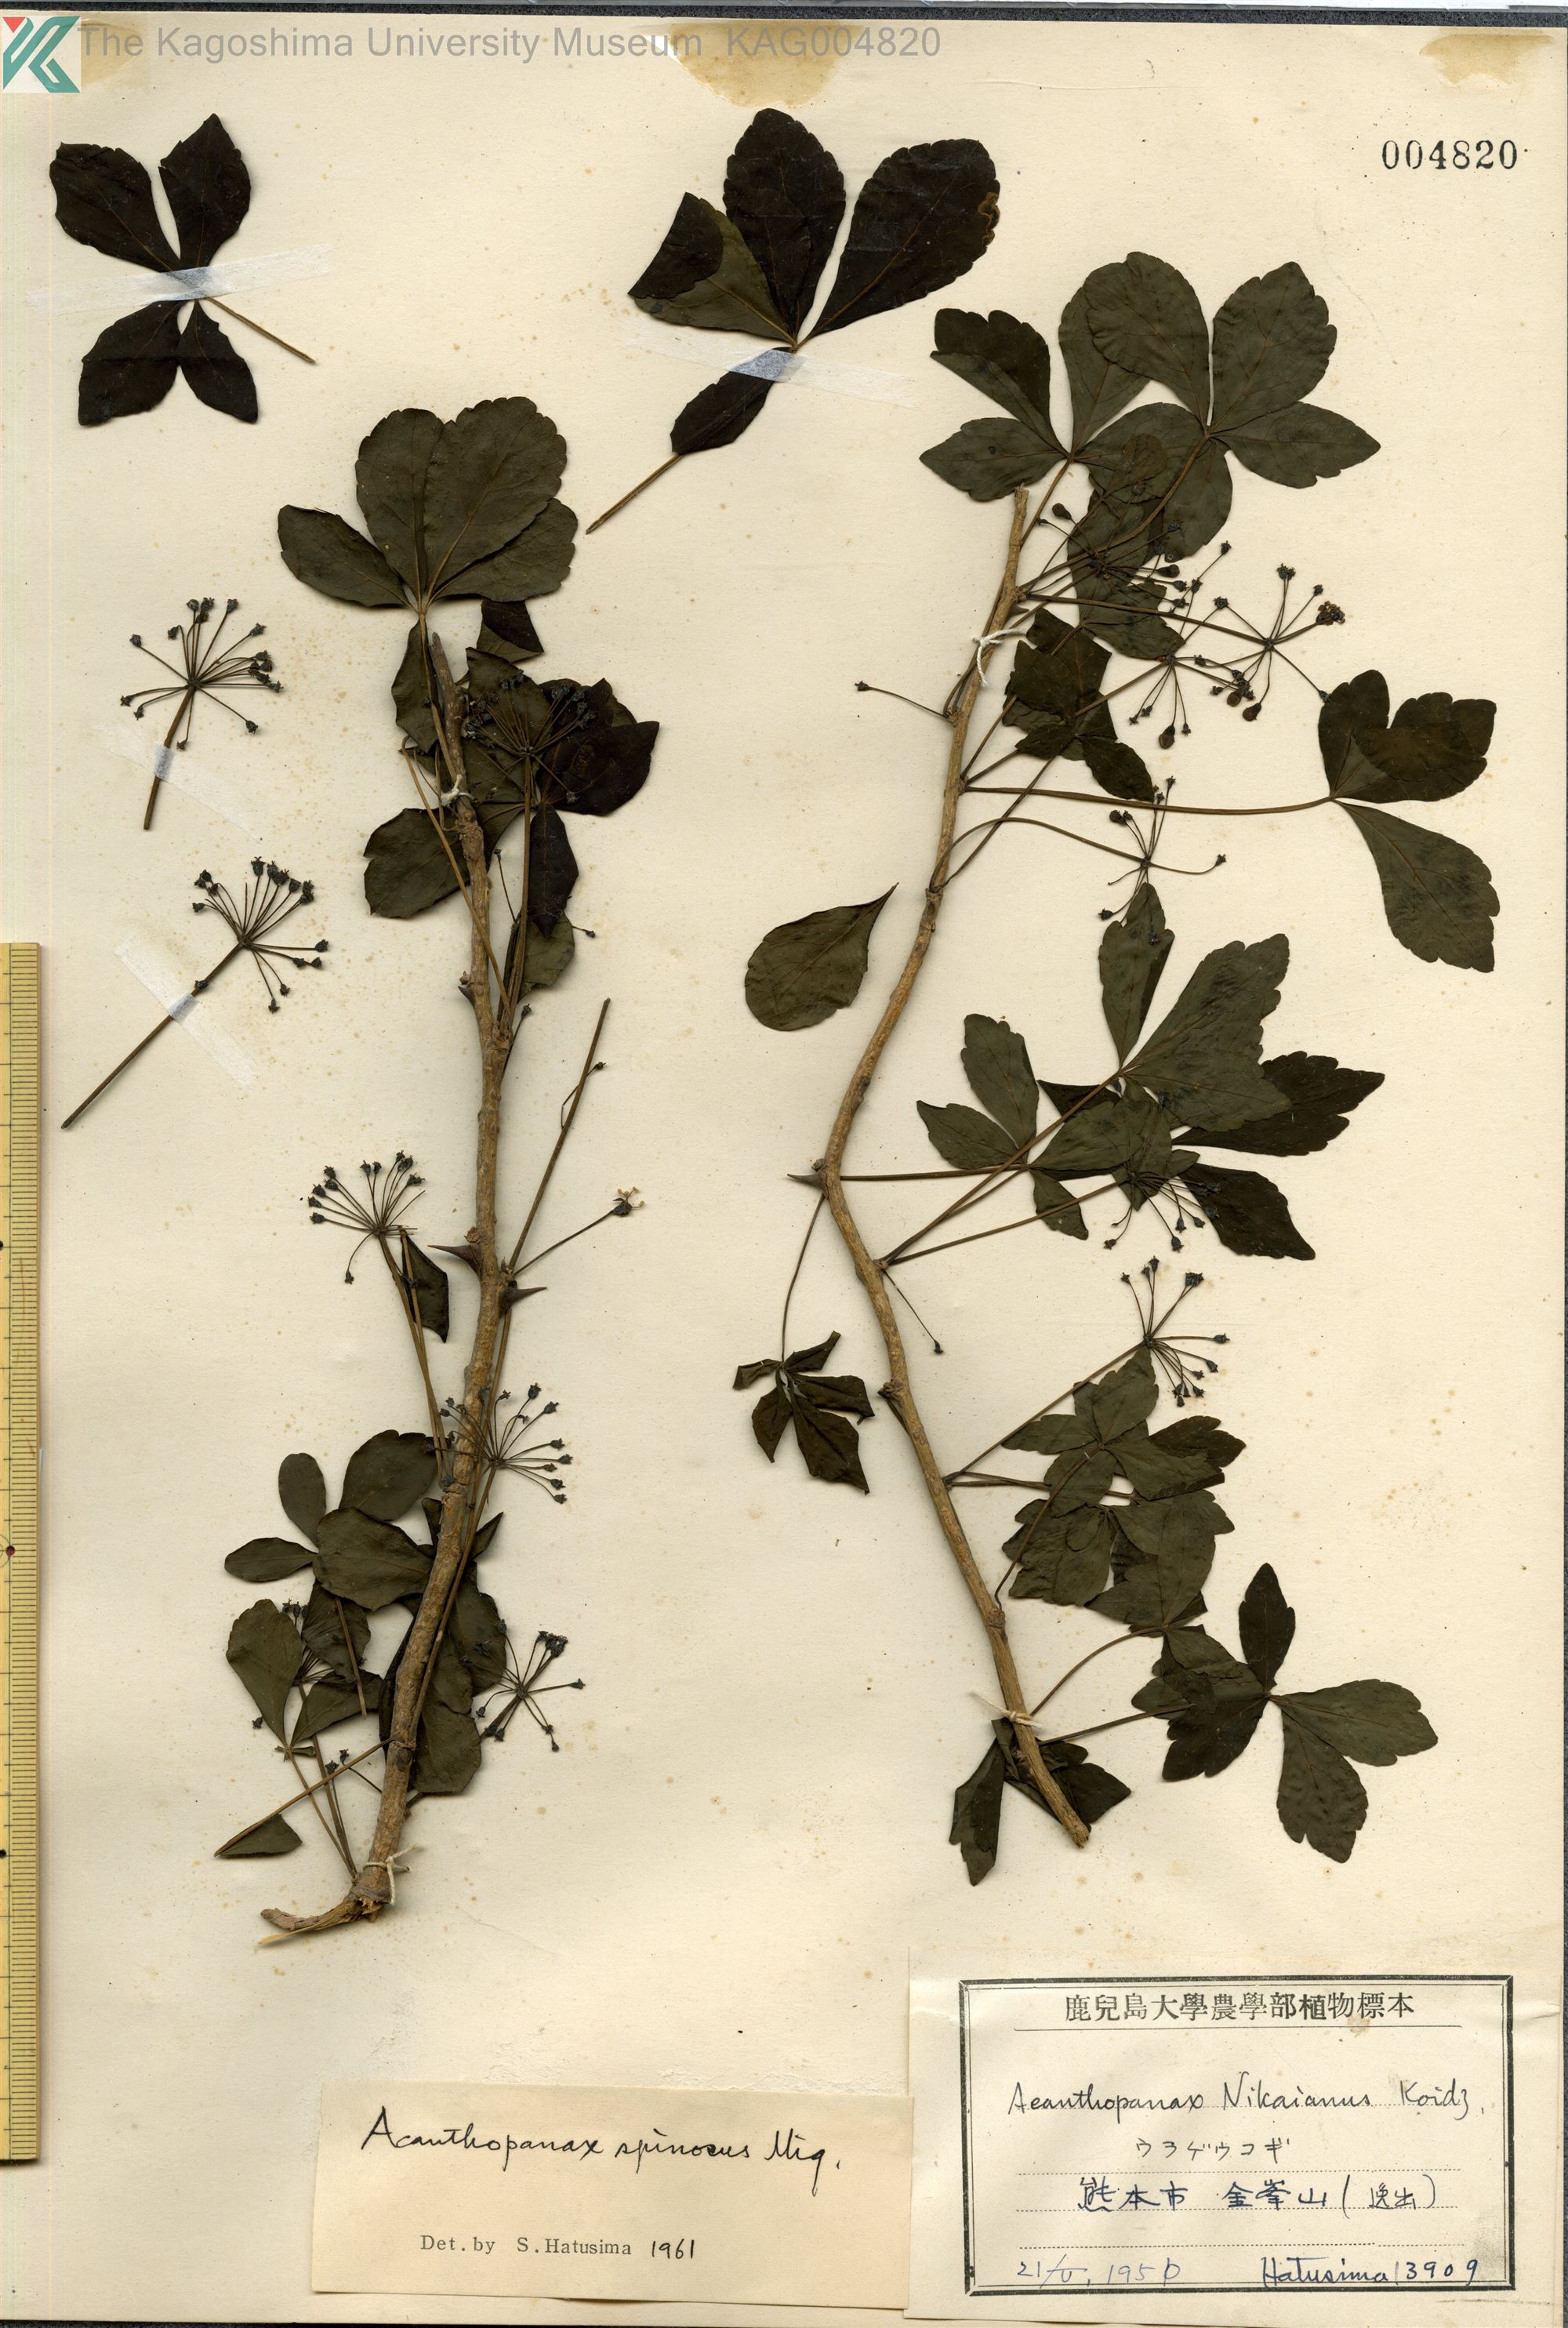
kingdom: Plantae
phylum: Tracheophyta
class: Magnoliopsida
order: Apiales
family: Araliaceae
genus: Eleutherococcus
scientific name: Eleutherococcus nodiflorus
